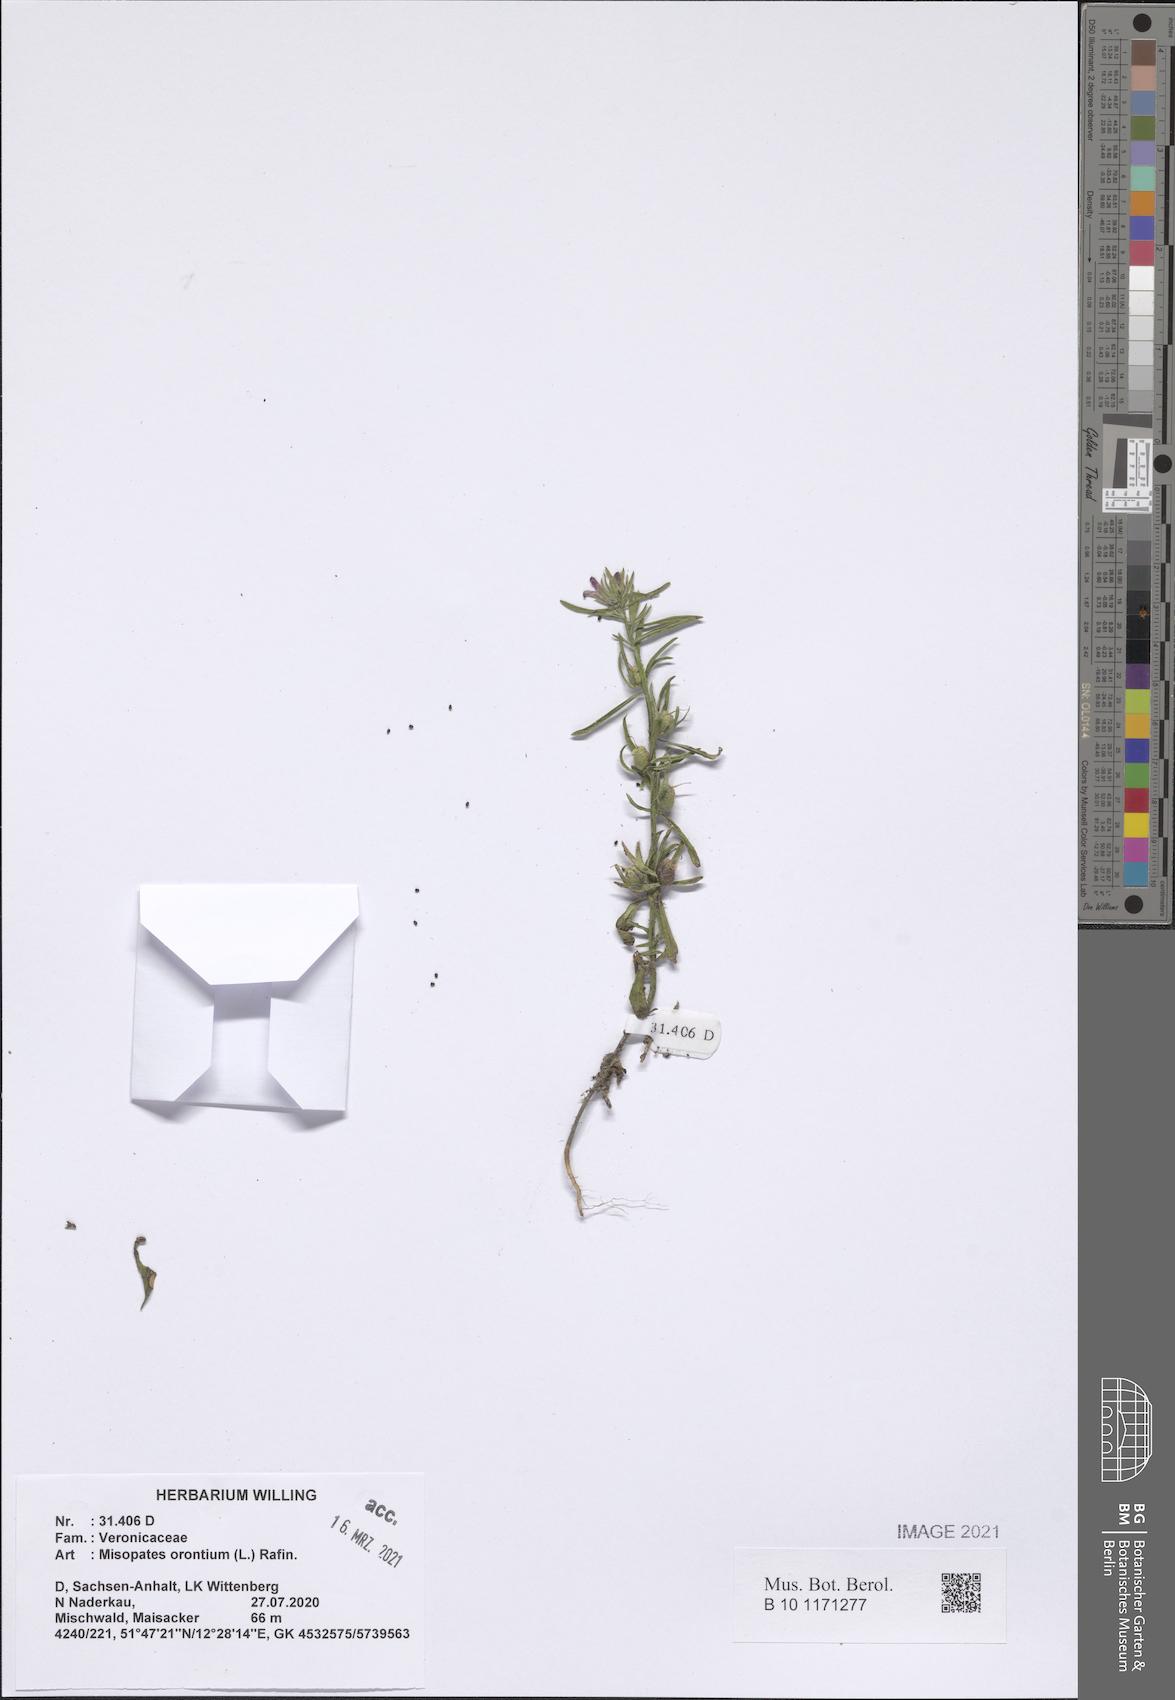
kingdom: Plantae
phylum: Tracheophyta
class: Magnoliopsida
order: Lamiales
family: Plantaginaceae
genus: Misopates
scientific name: Misopates orontium
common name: Weasel's-snout
